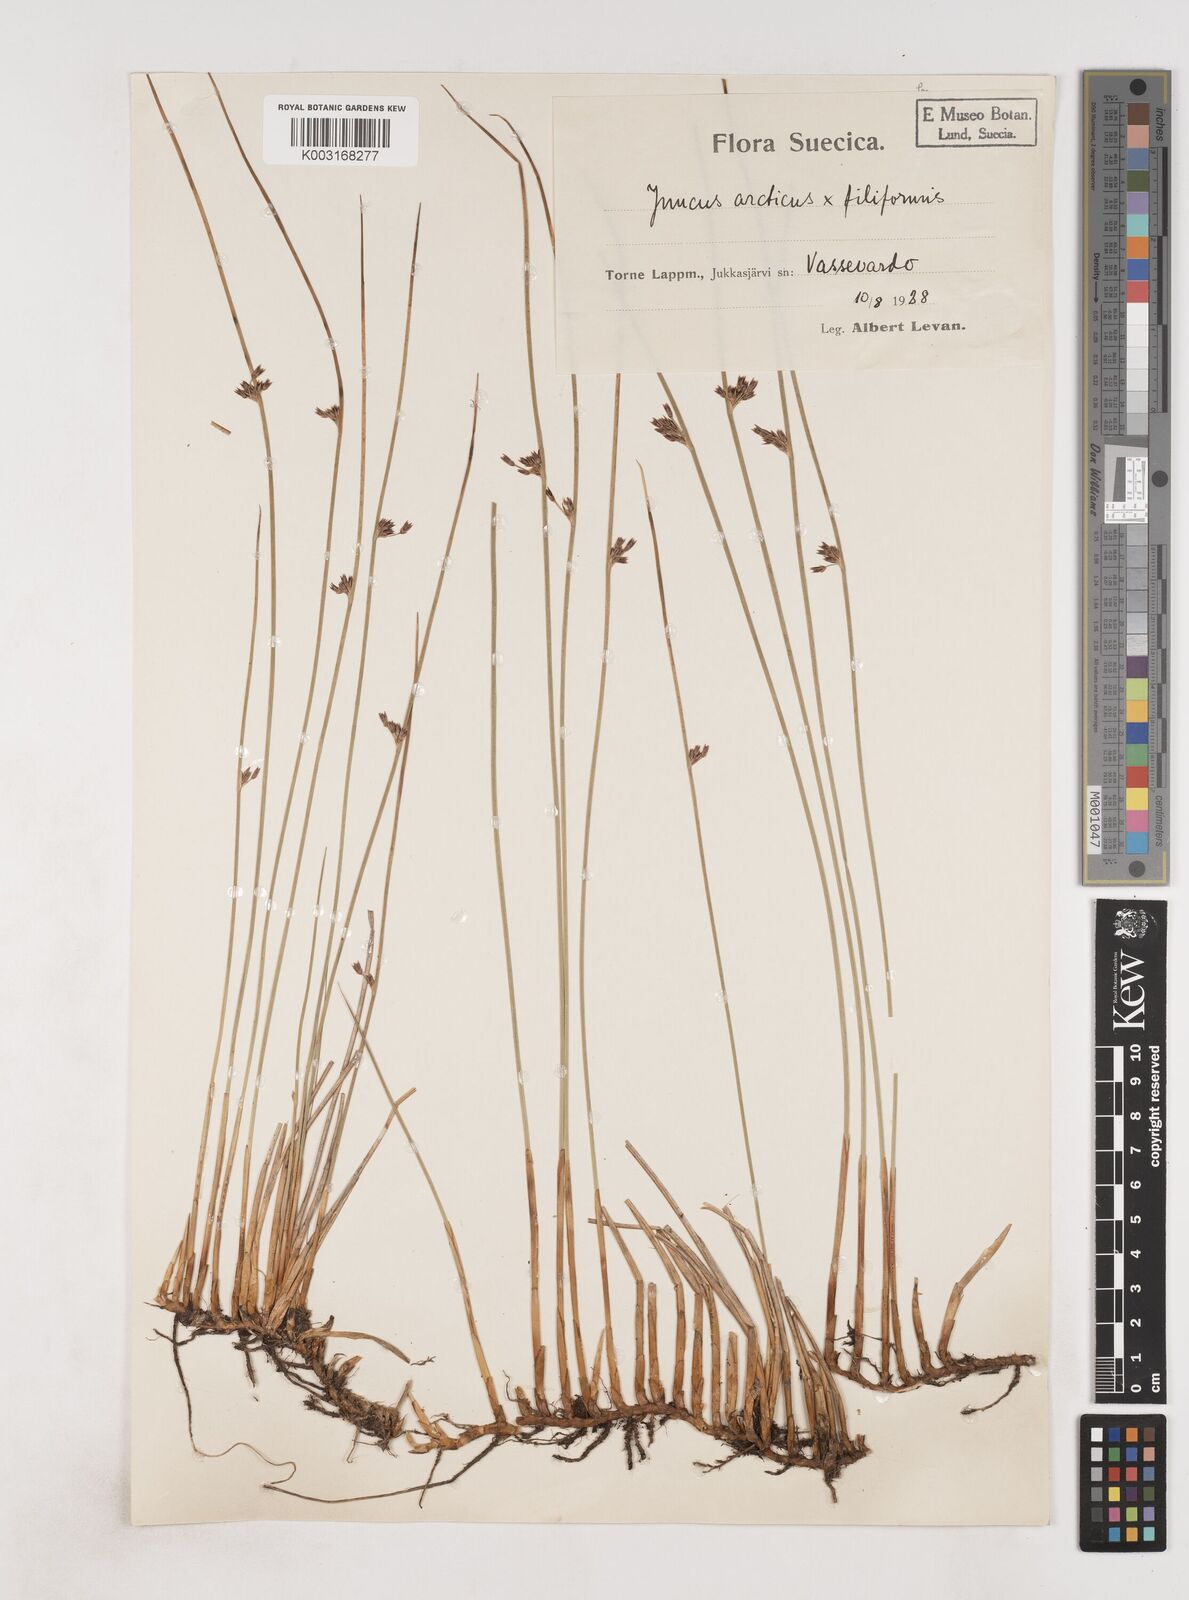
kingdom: Plantae
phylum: Tracheophyta
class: Liliopsida
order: Poales
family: Juncaceae
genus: Juncus
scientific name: Juncus arcticus
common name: Arctic rush
